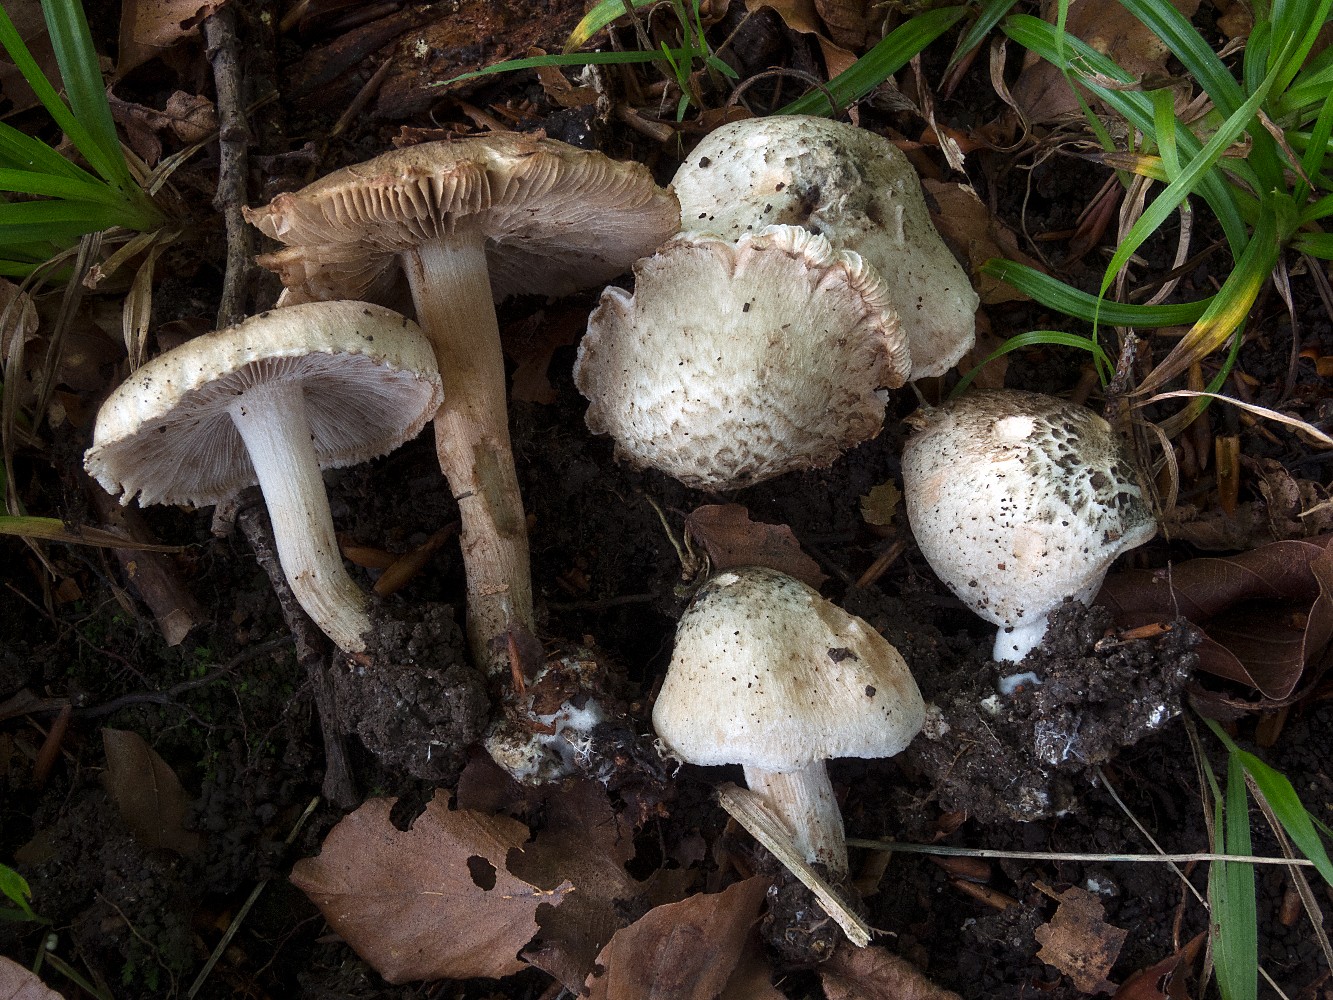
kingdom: Fungi
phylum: Basidiomycota
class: Agaricomycetes
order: Agaricales
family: Inocybaceae
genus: Inocybe
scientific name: Inocybe corydalina
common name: grønpuklet trævlhat
